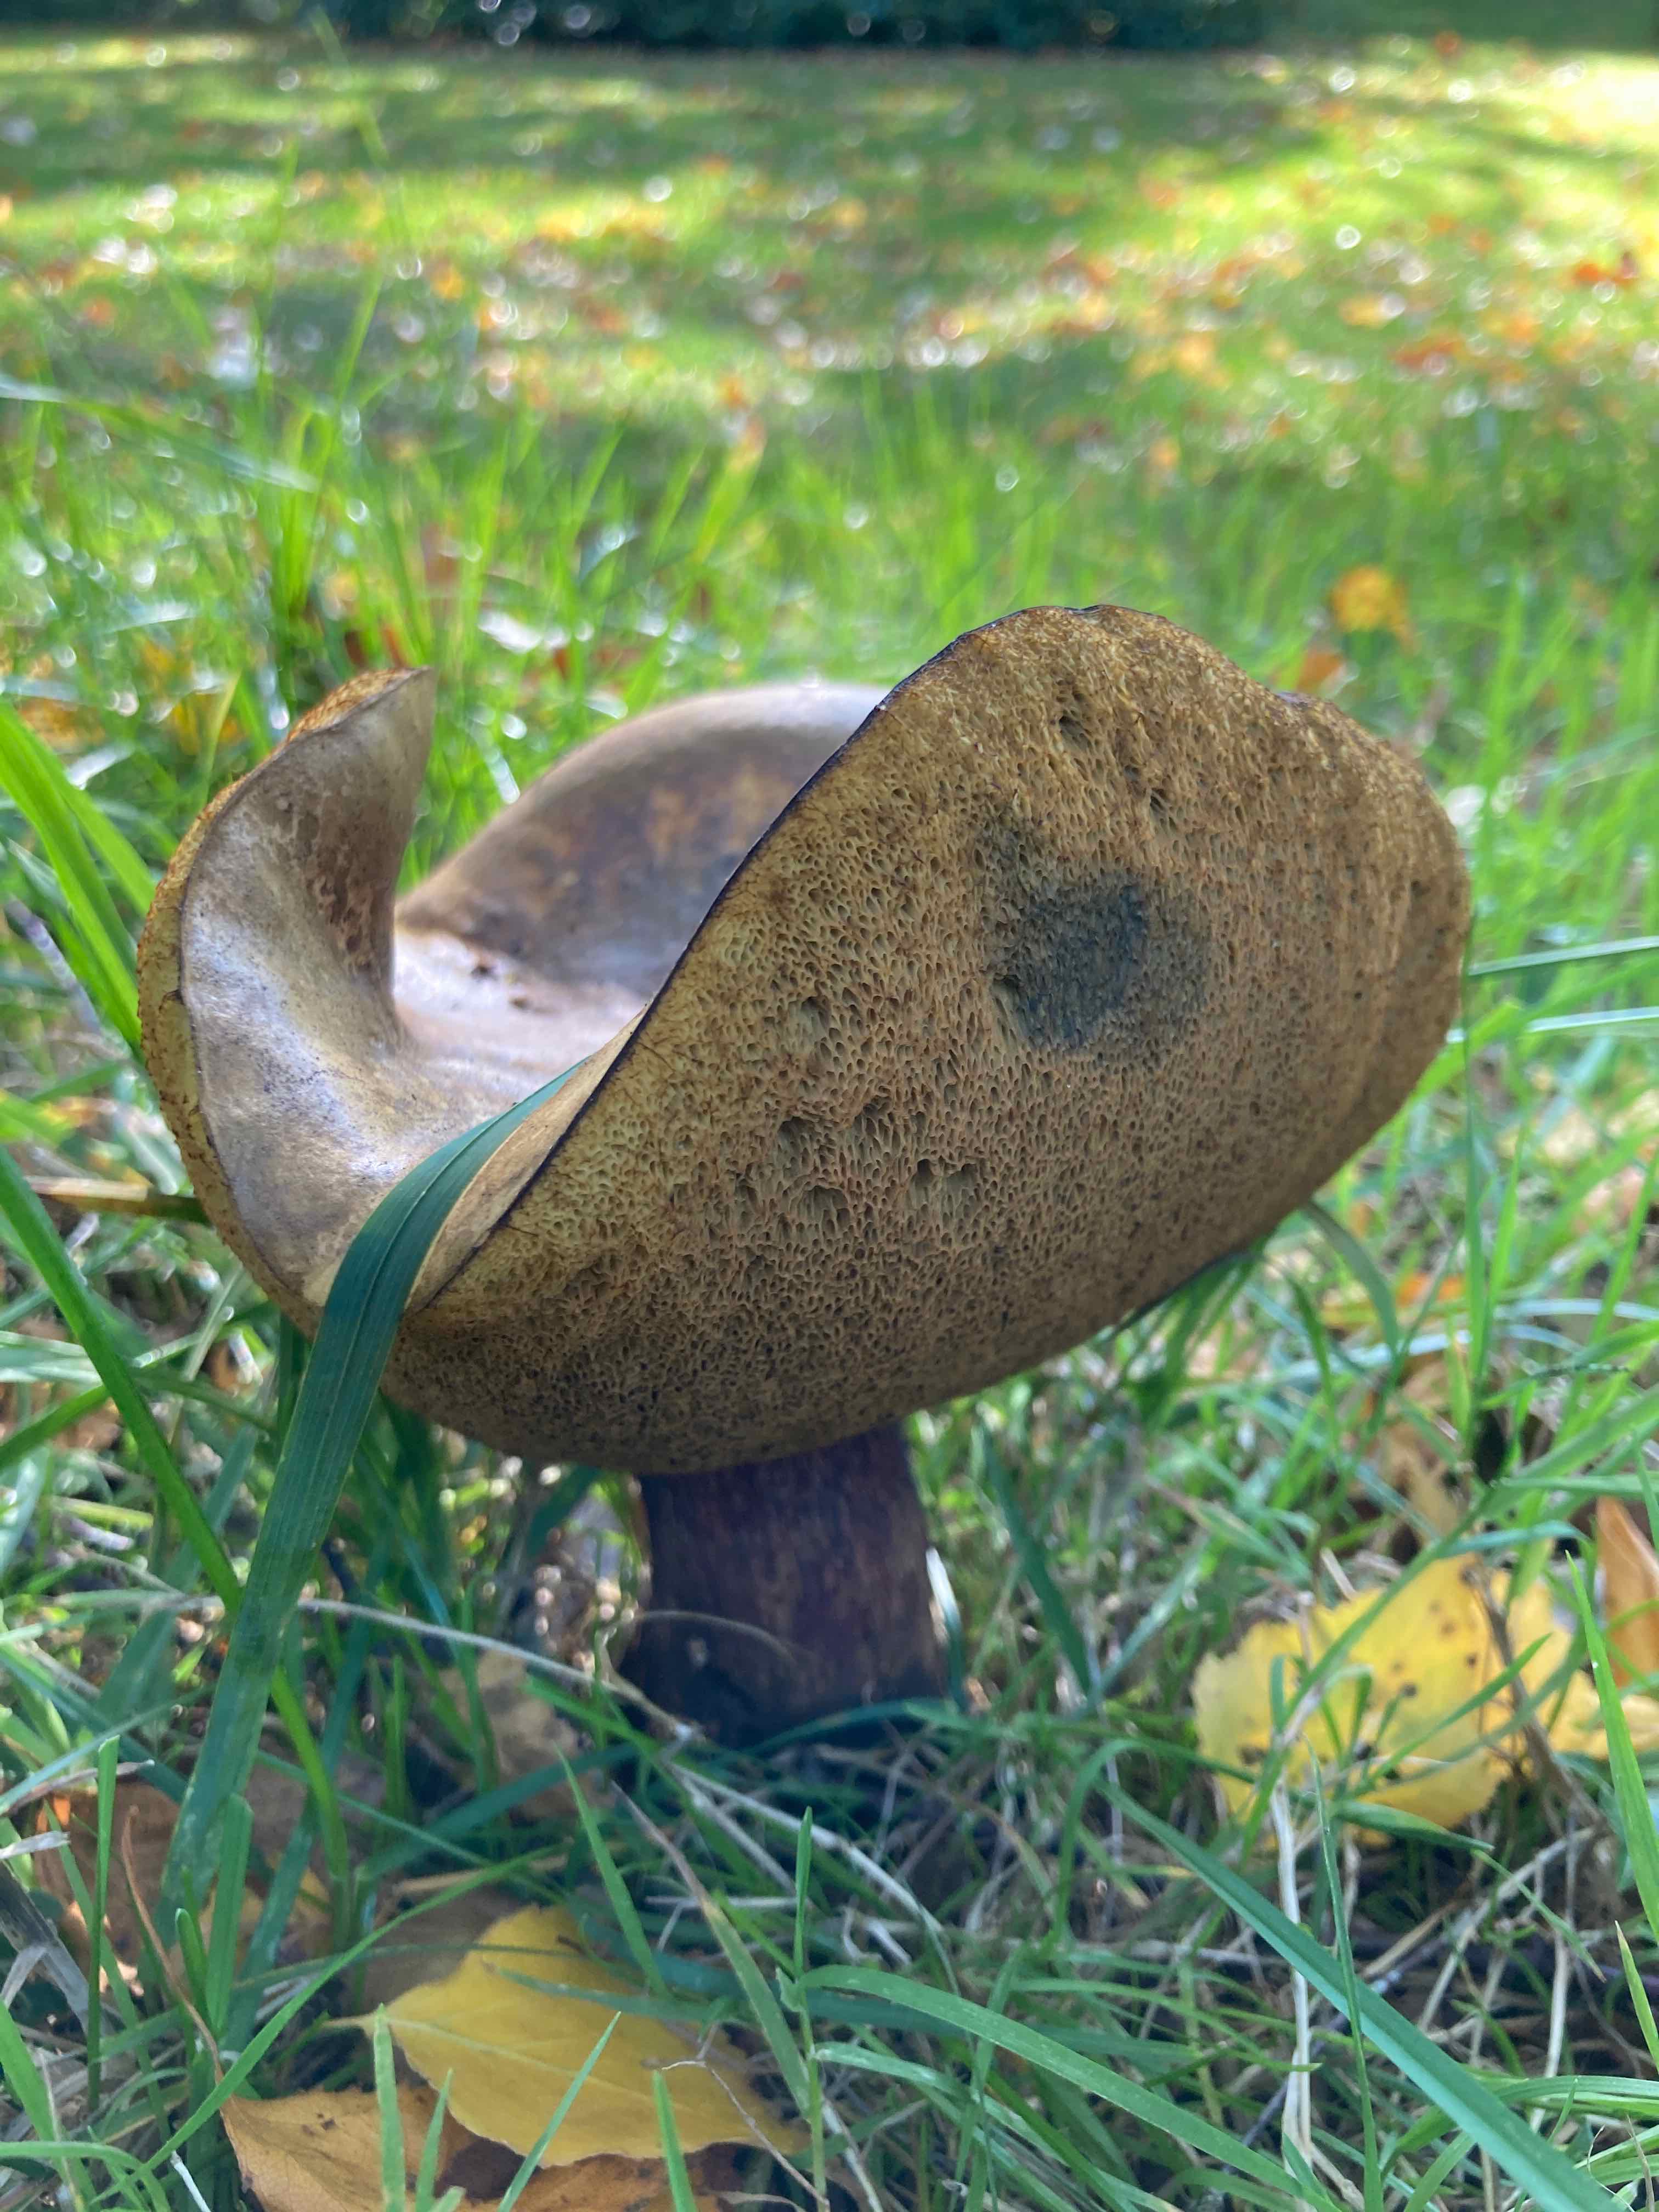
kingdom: Fungi
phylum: Basidiomycota
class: Agaricomycetes
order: Boletales
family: Boletaceae
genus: Suillellus
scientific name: Suillellus luridus
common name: netstokket indigorørhat
